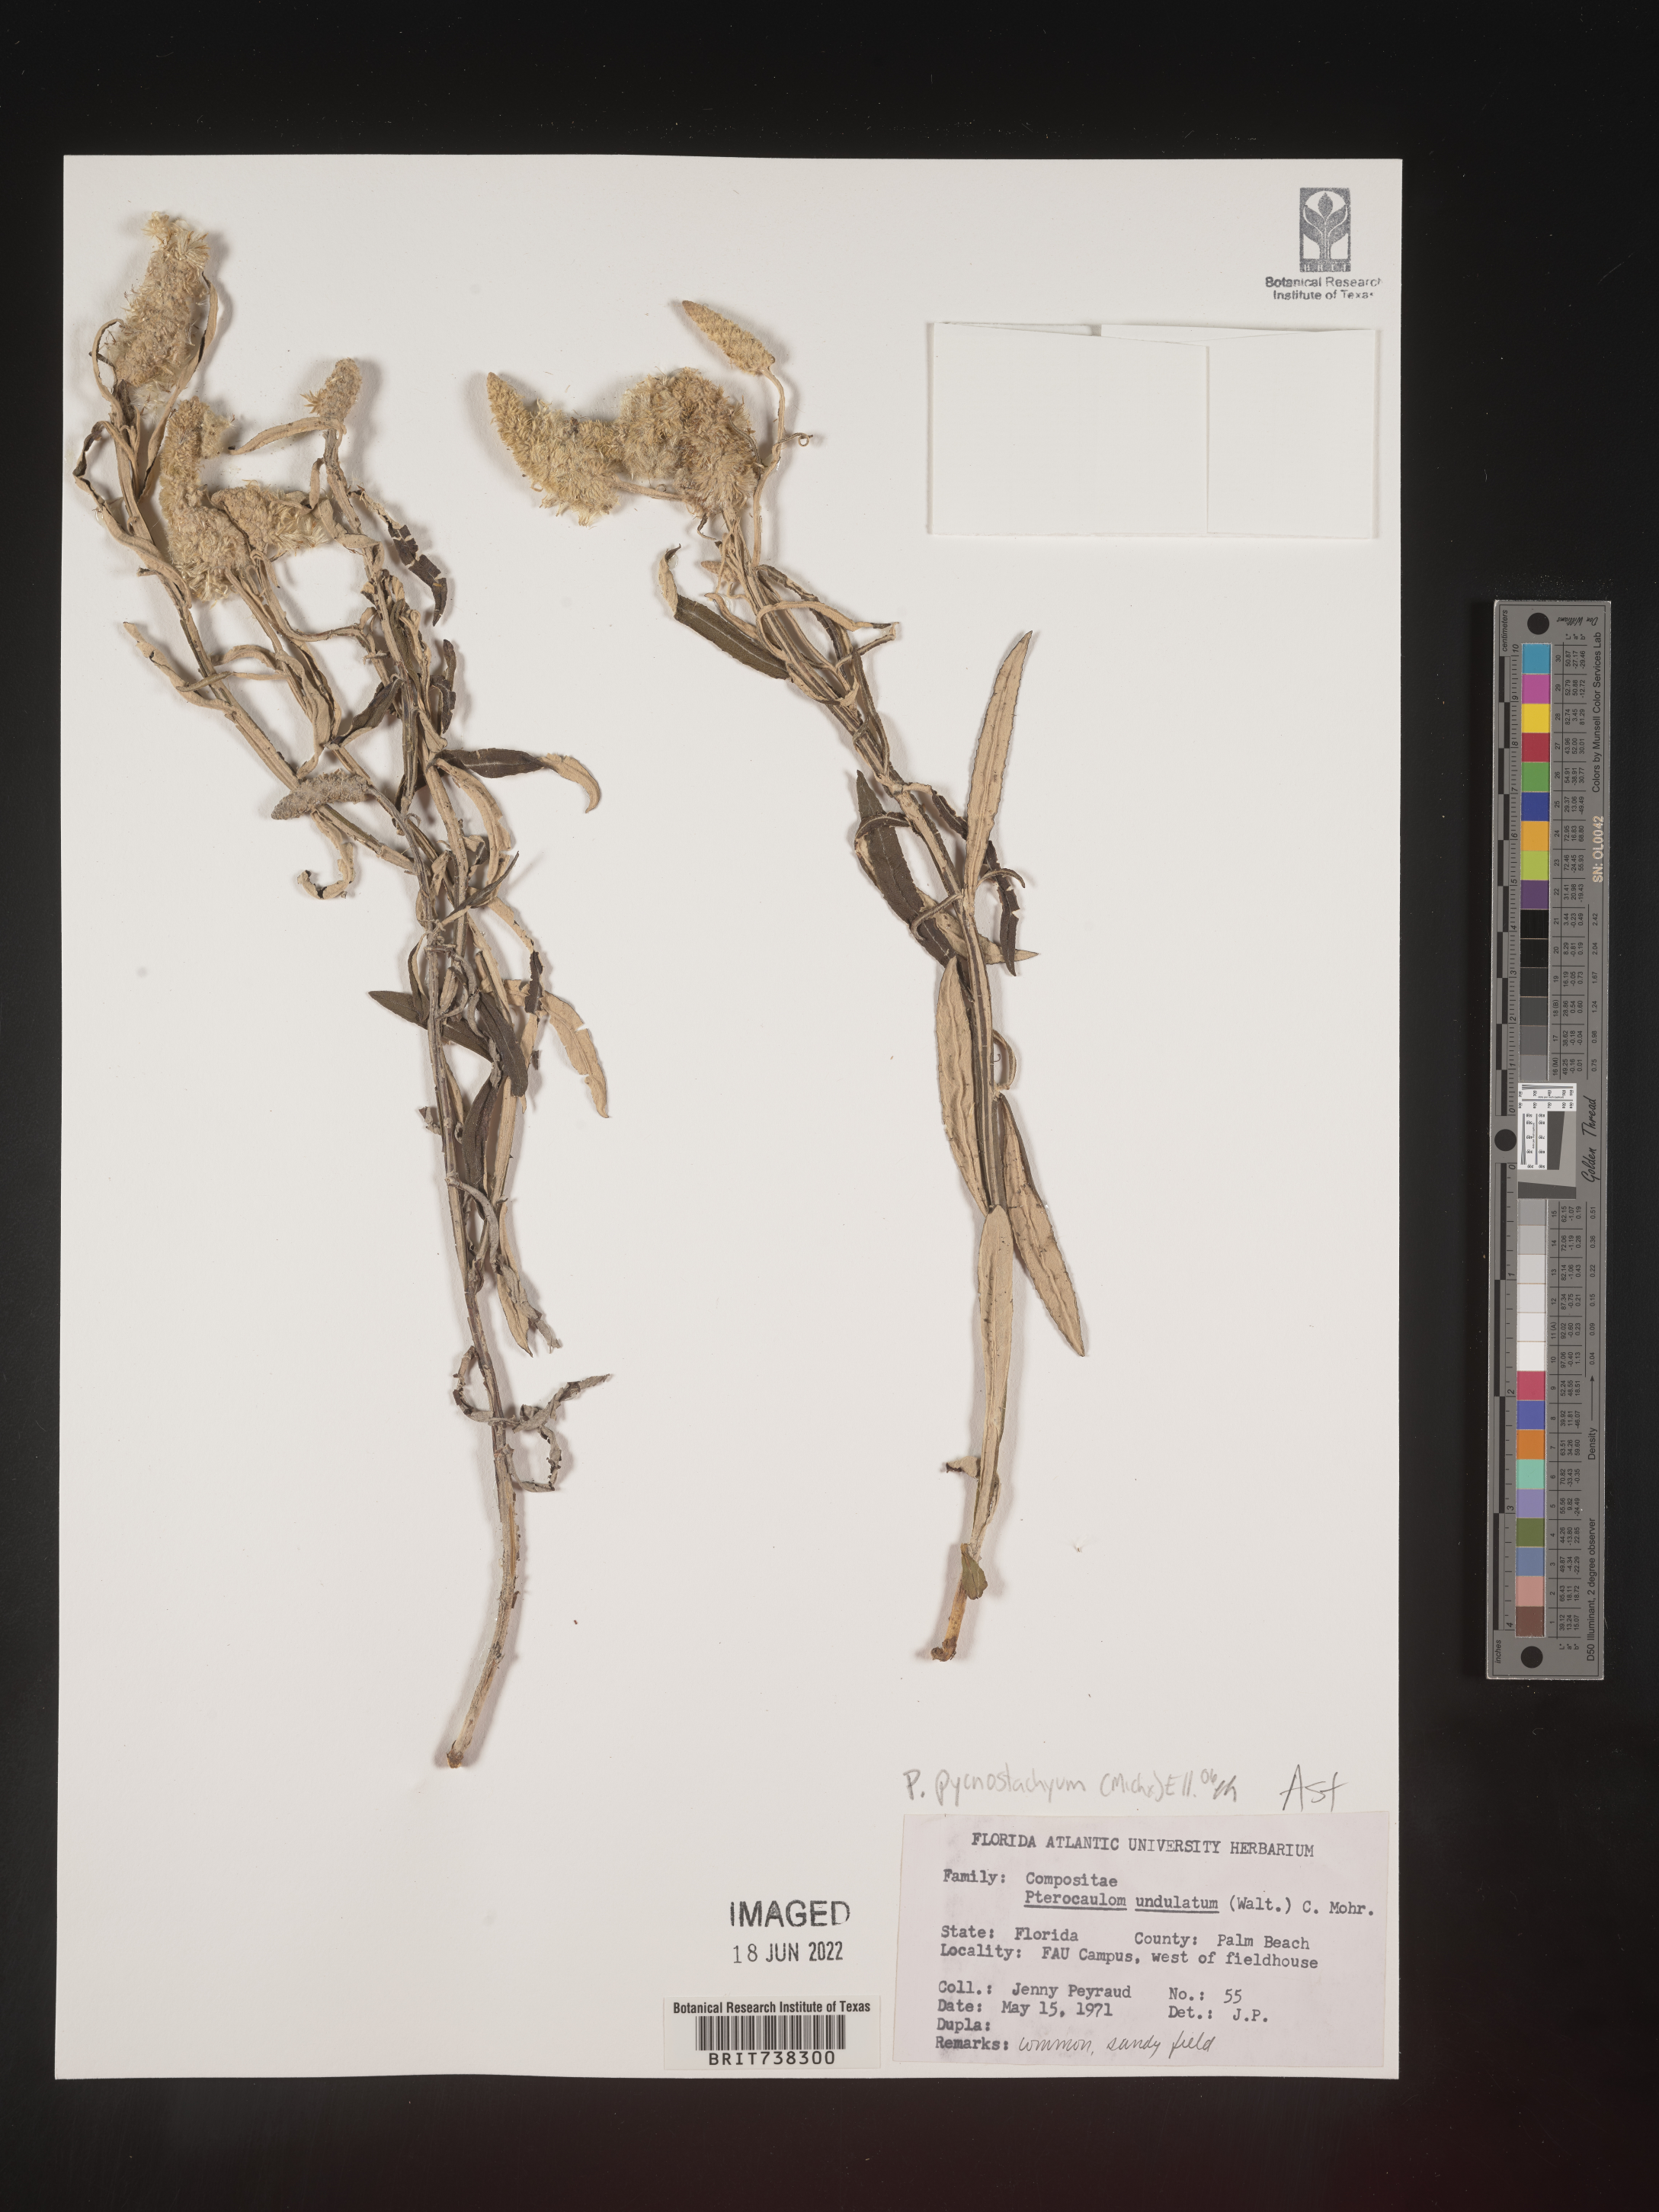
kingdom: Plantae
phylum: Tracheophyta
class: Magnoliopsida
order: Asterales
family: Asteraceae
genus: Pterocaulon
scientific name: Pterocaulon pycnostachyum
